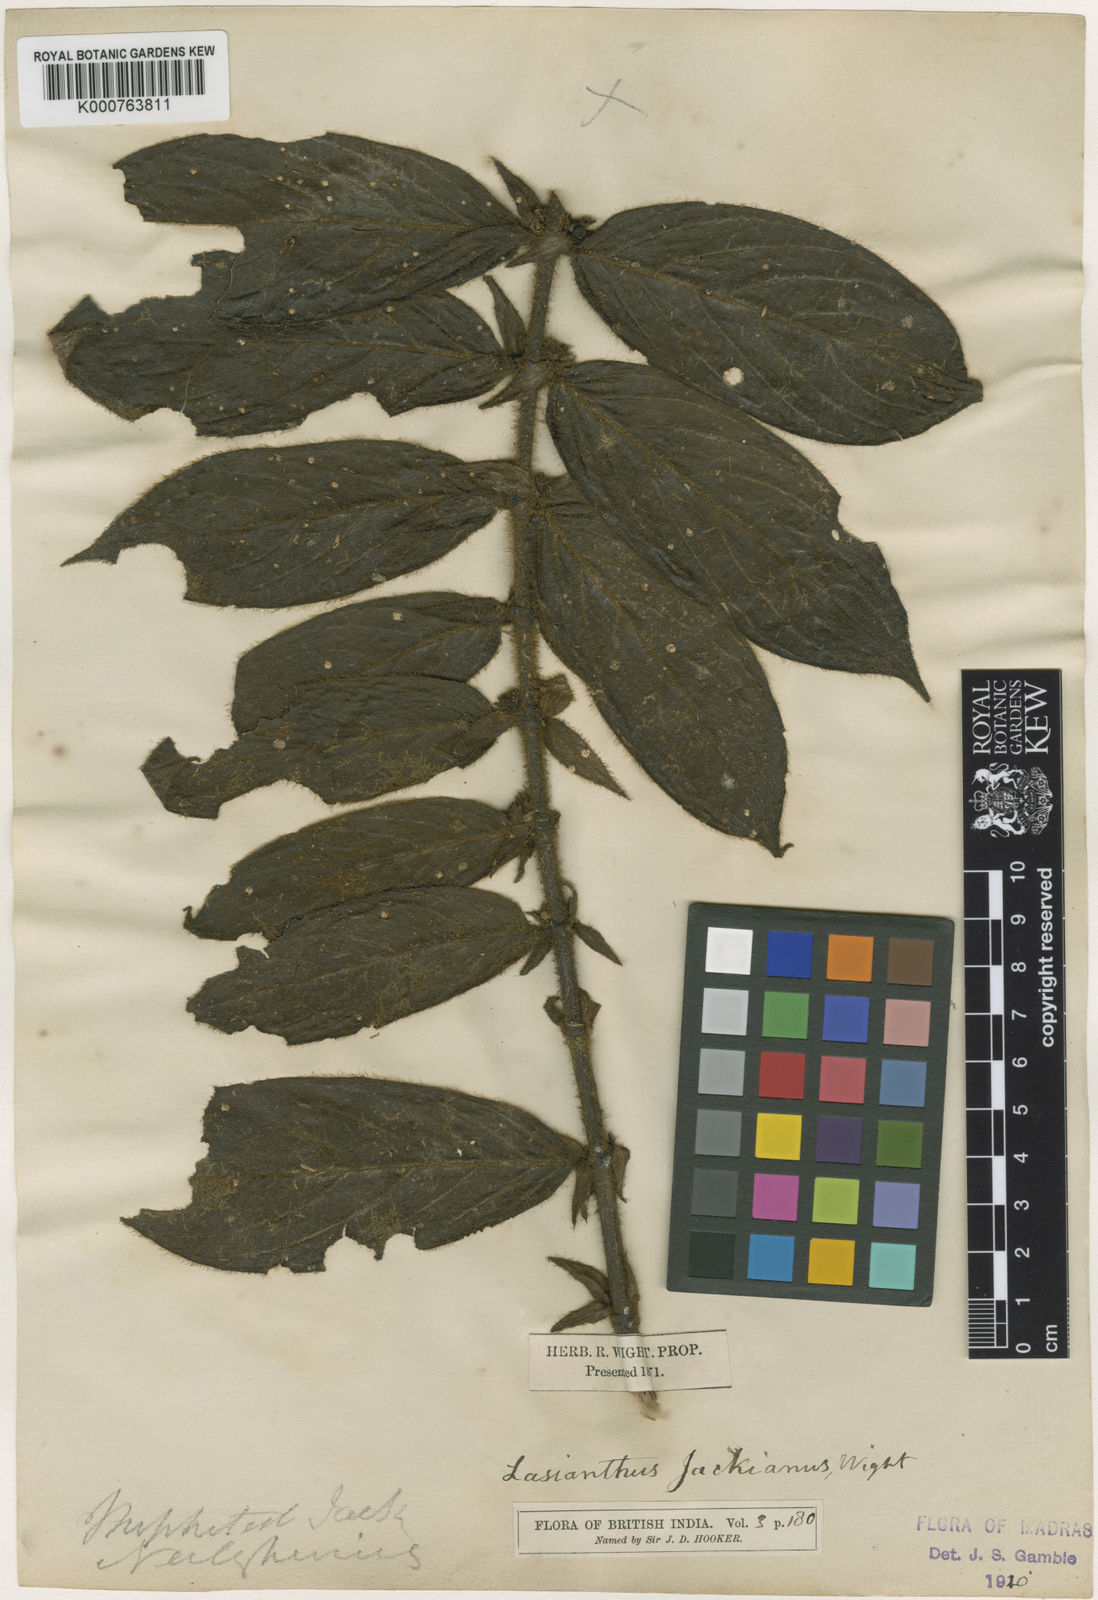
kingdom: Plantae
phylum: Tracheophyta
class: Magnoliopsida
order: Gentianales
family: Rubiaceae
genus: Lasianthus
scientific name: Lasianthus jackianus
